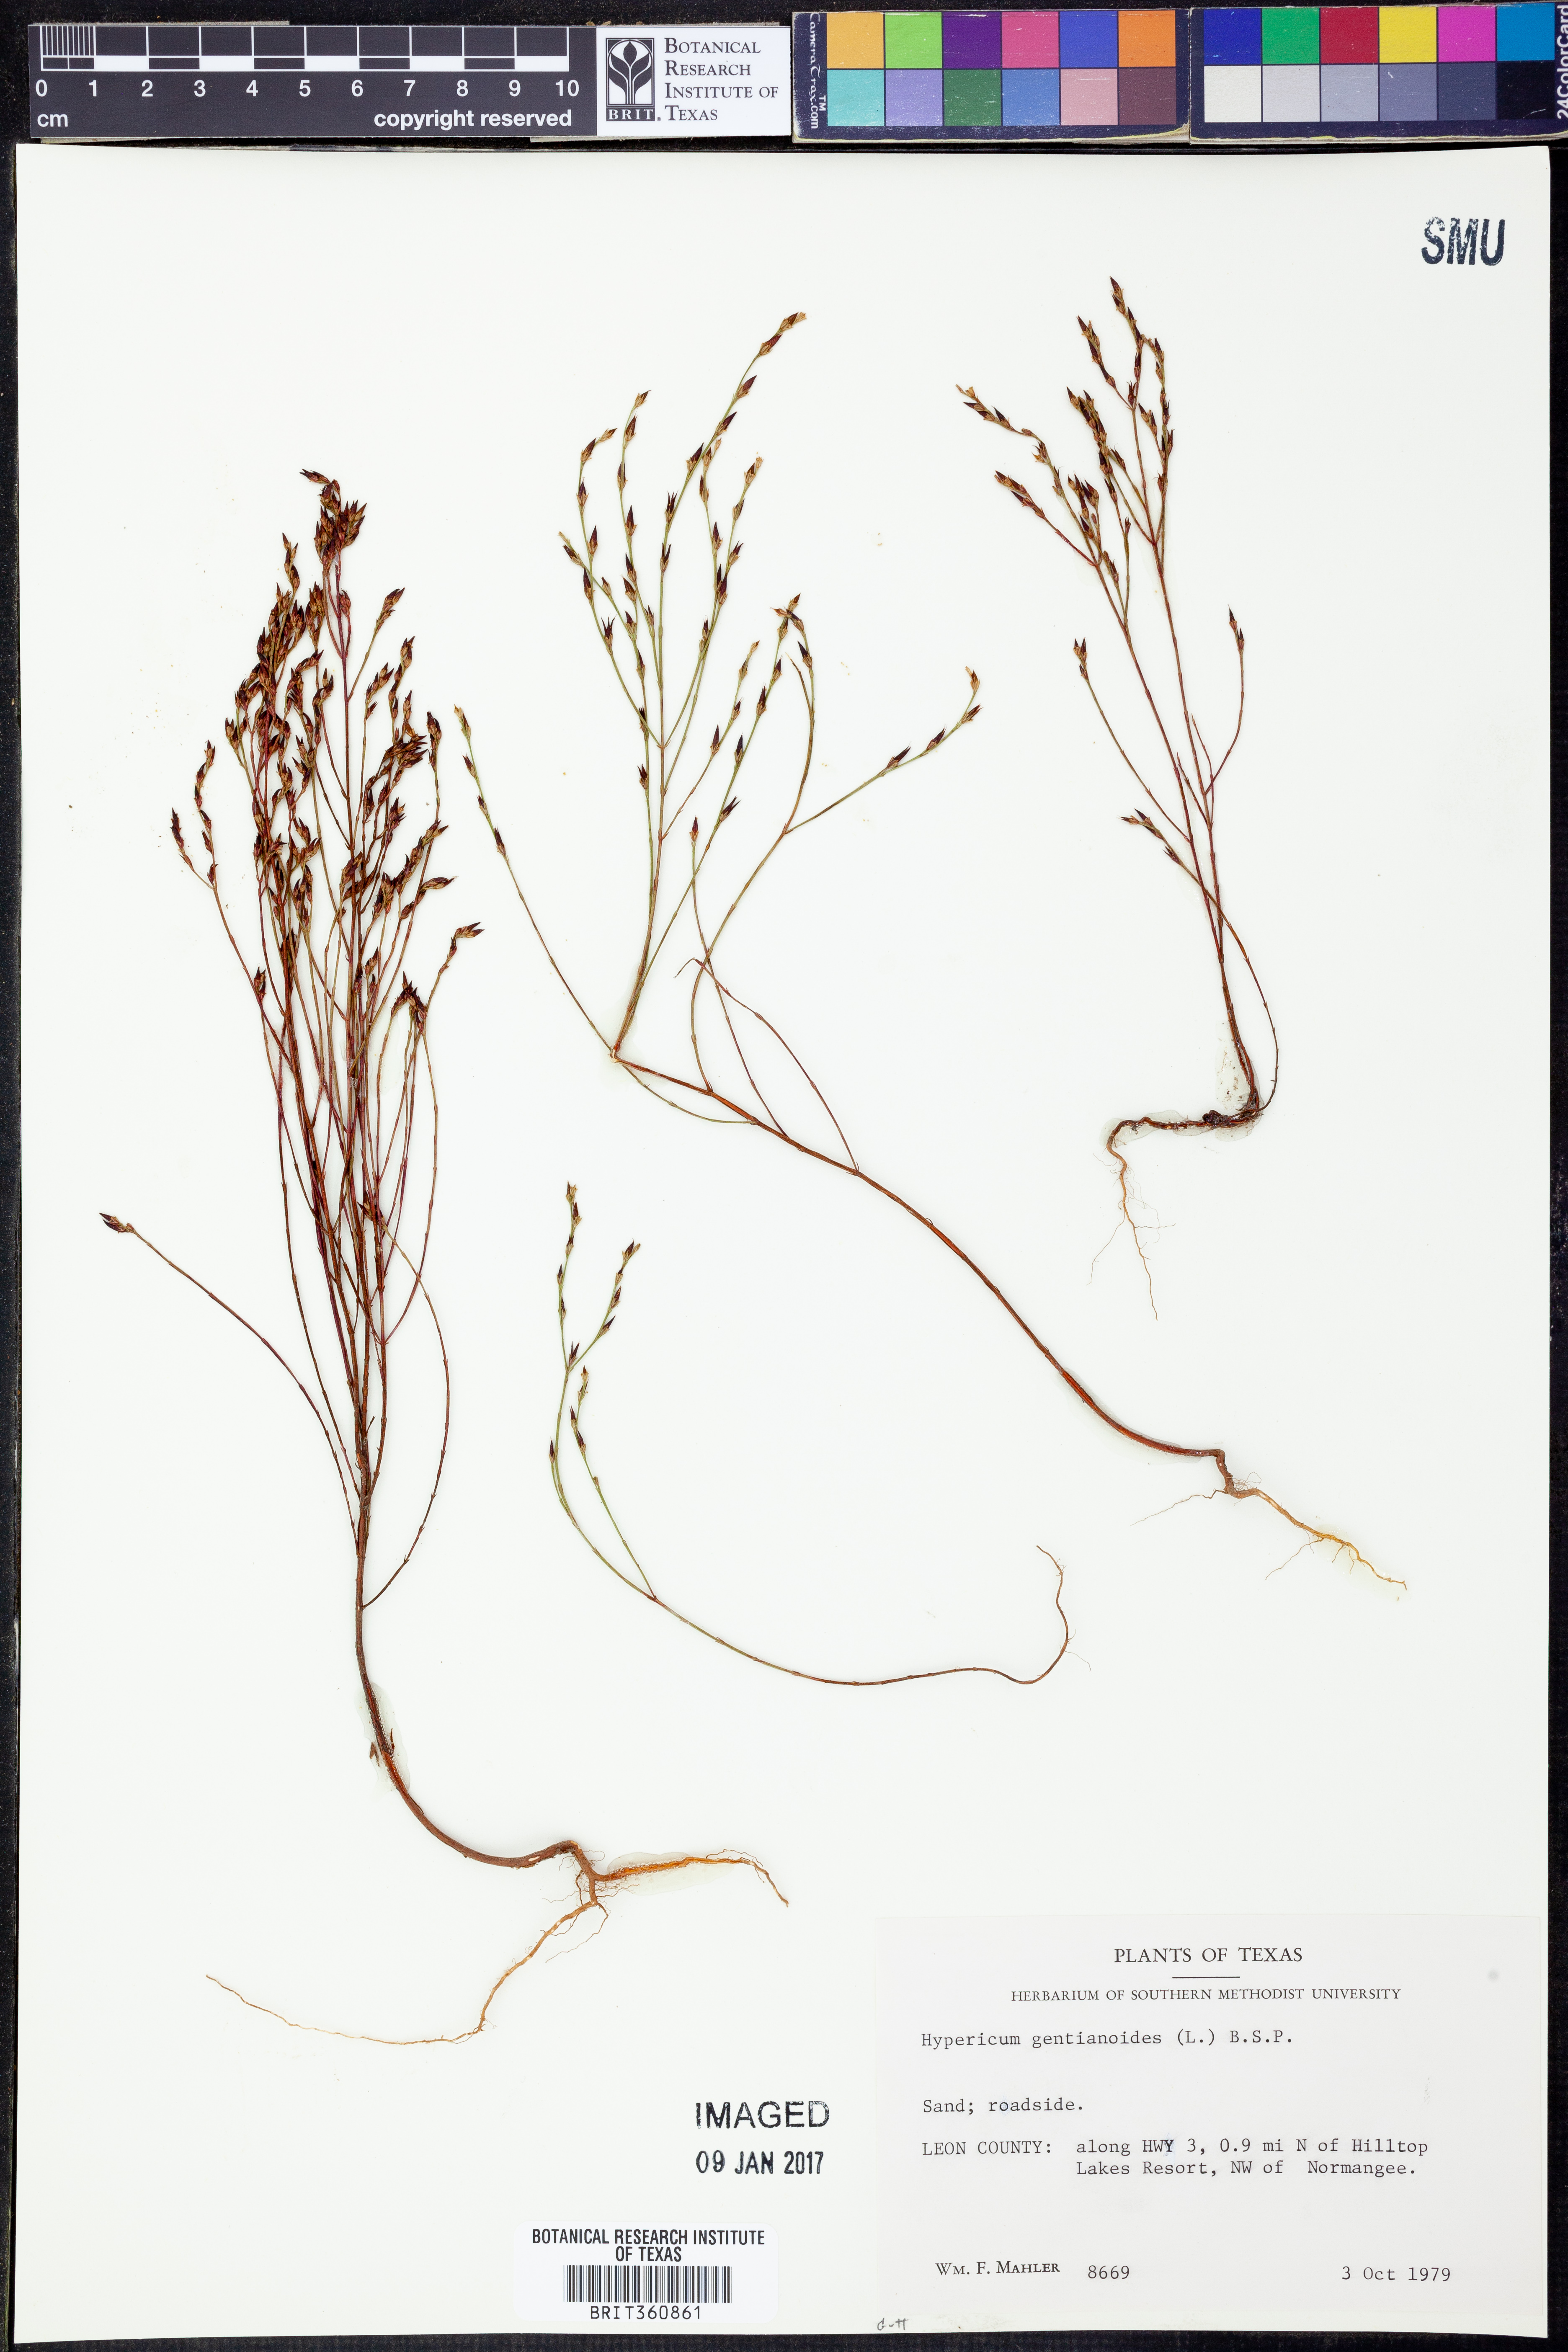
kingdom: Plantae
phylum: Tracheophyta
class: Magnoliopsida
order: Malpighiales
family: Hypericaceae
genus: Hypericum
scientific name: Hypericum gentianoides
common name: Gentian-leaved st. john's-wort
